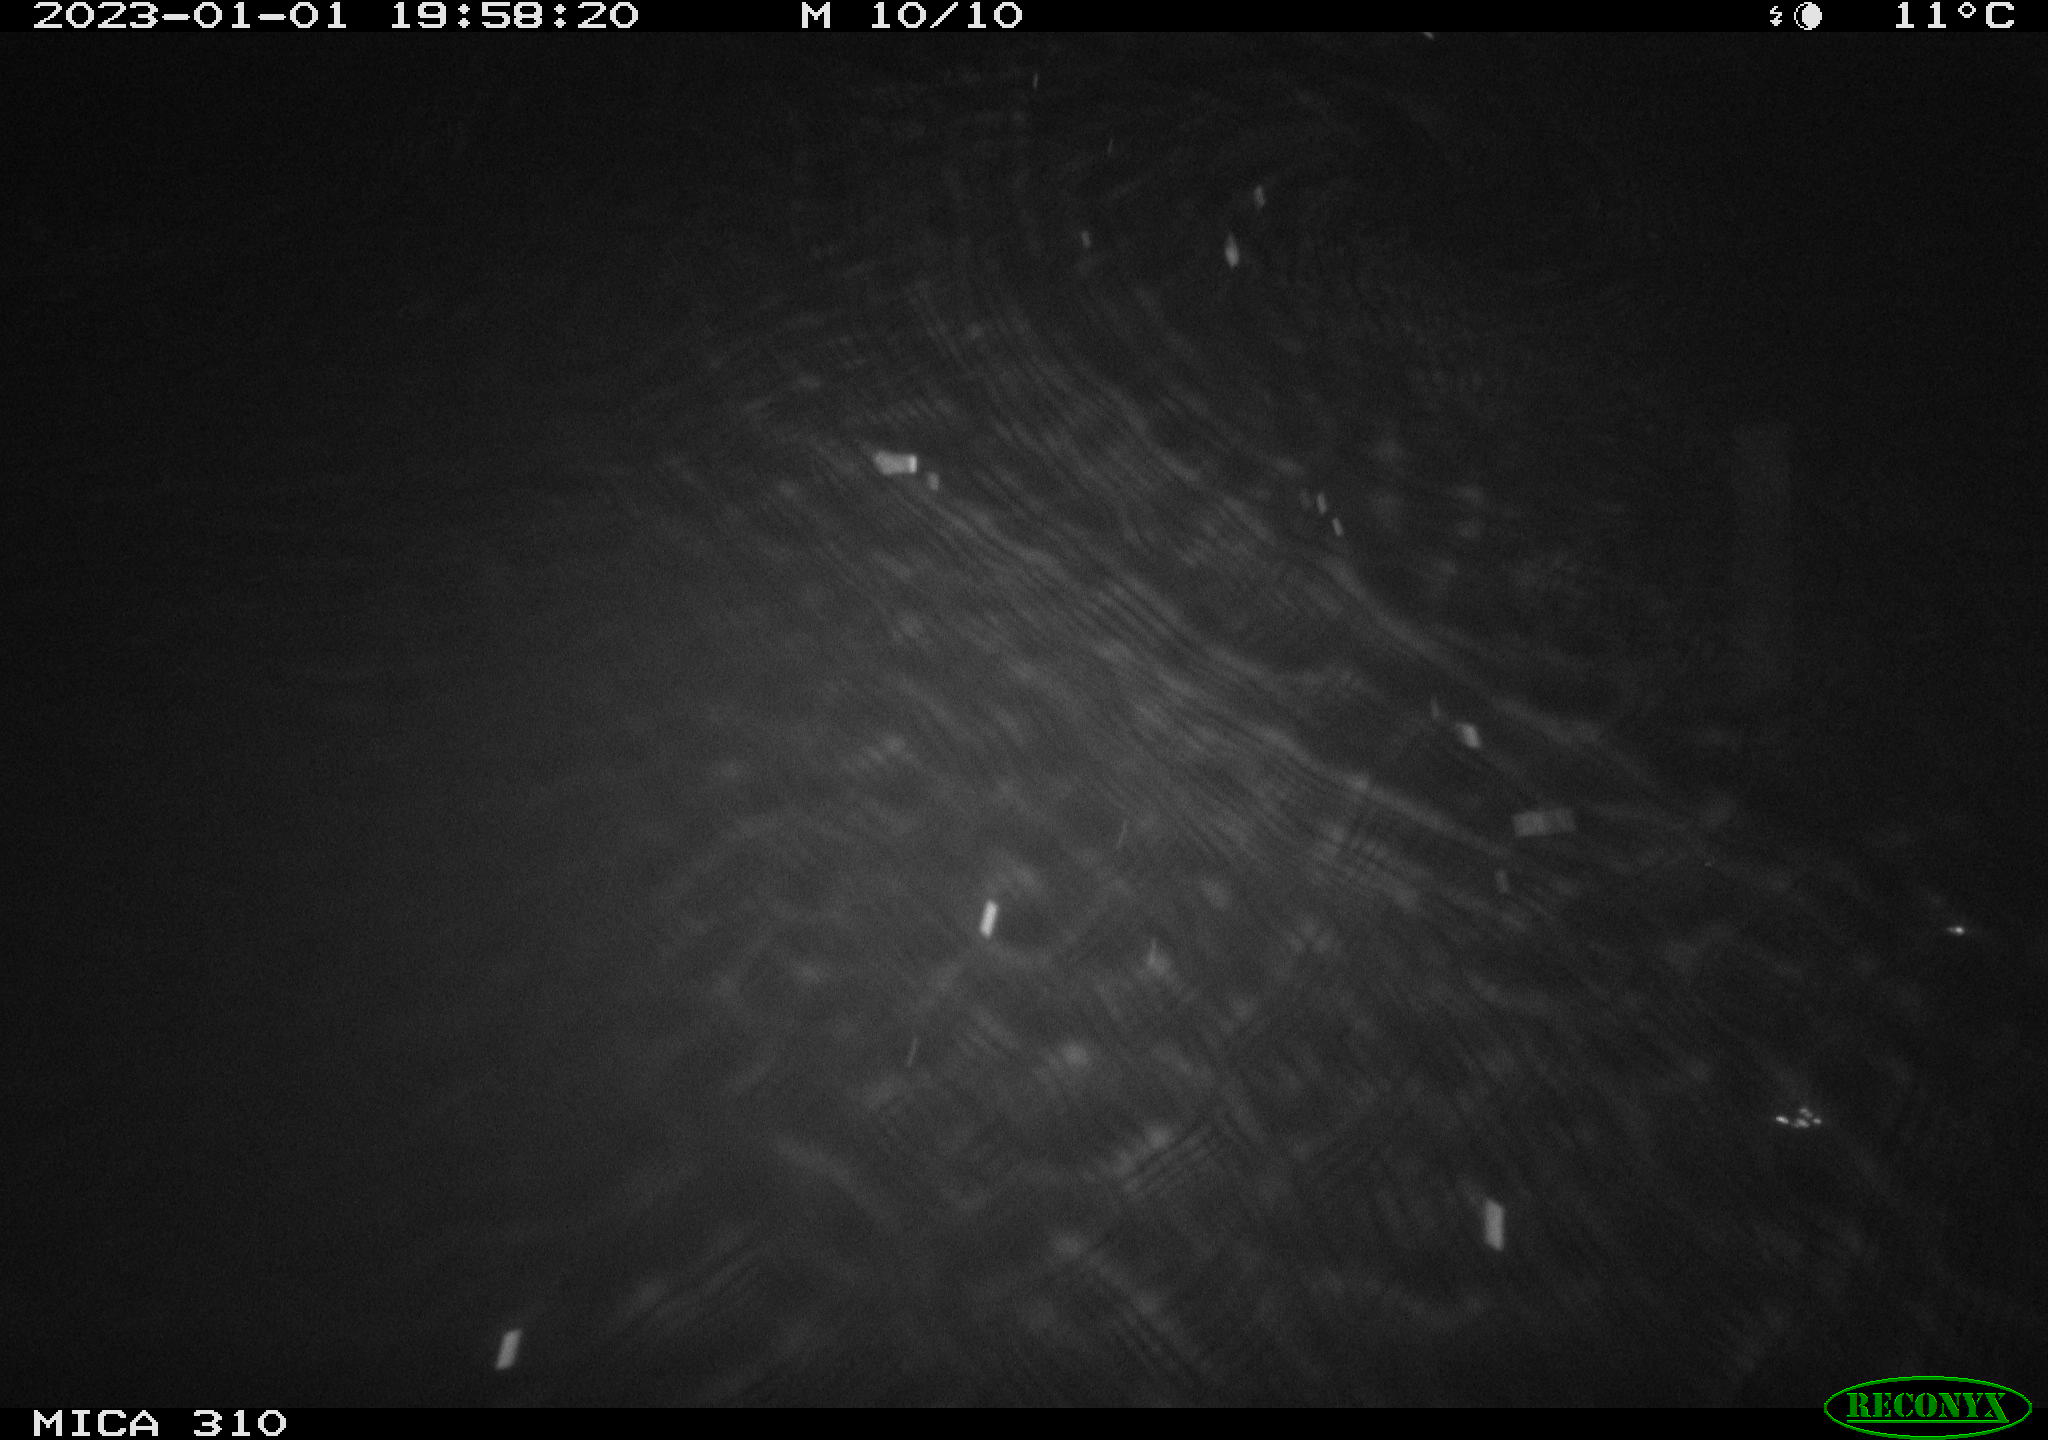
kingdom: Animalia
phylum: Chordata
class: Mammalia
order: Rodentia
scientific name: Rodentia
